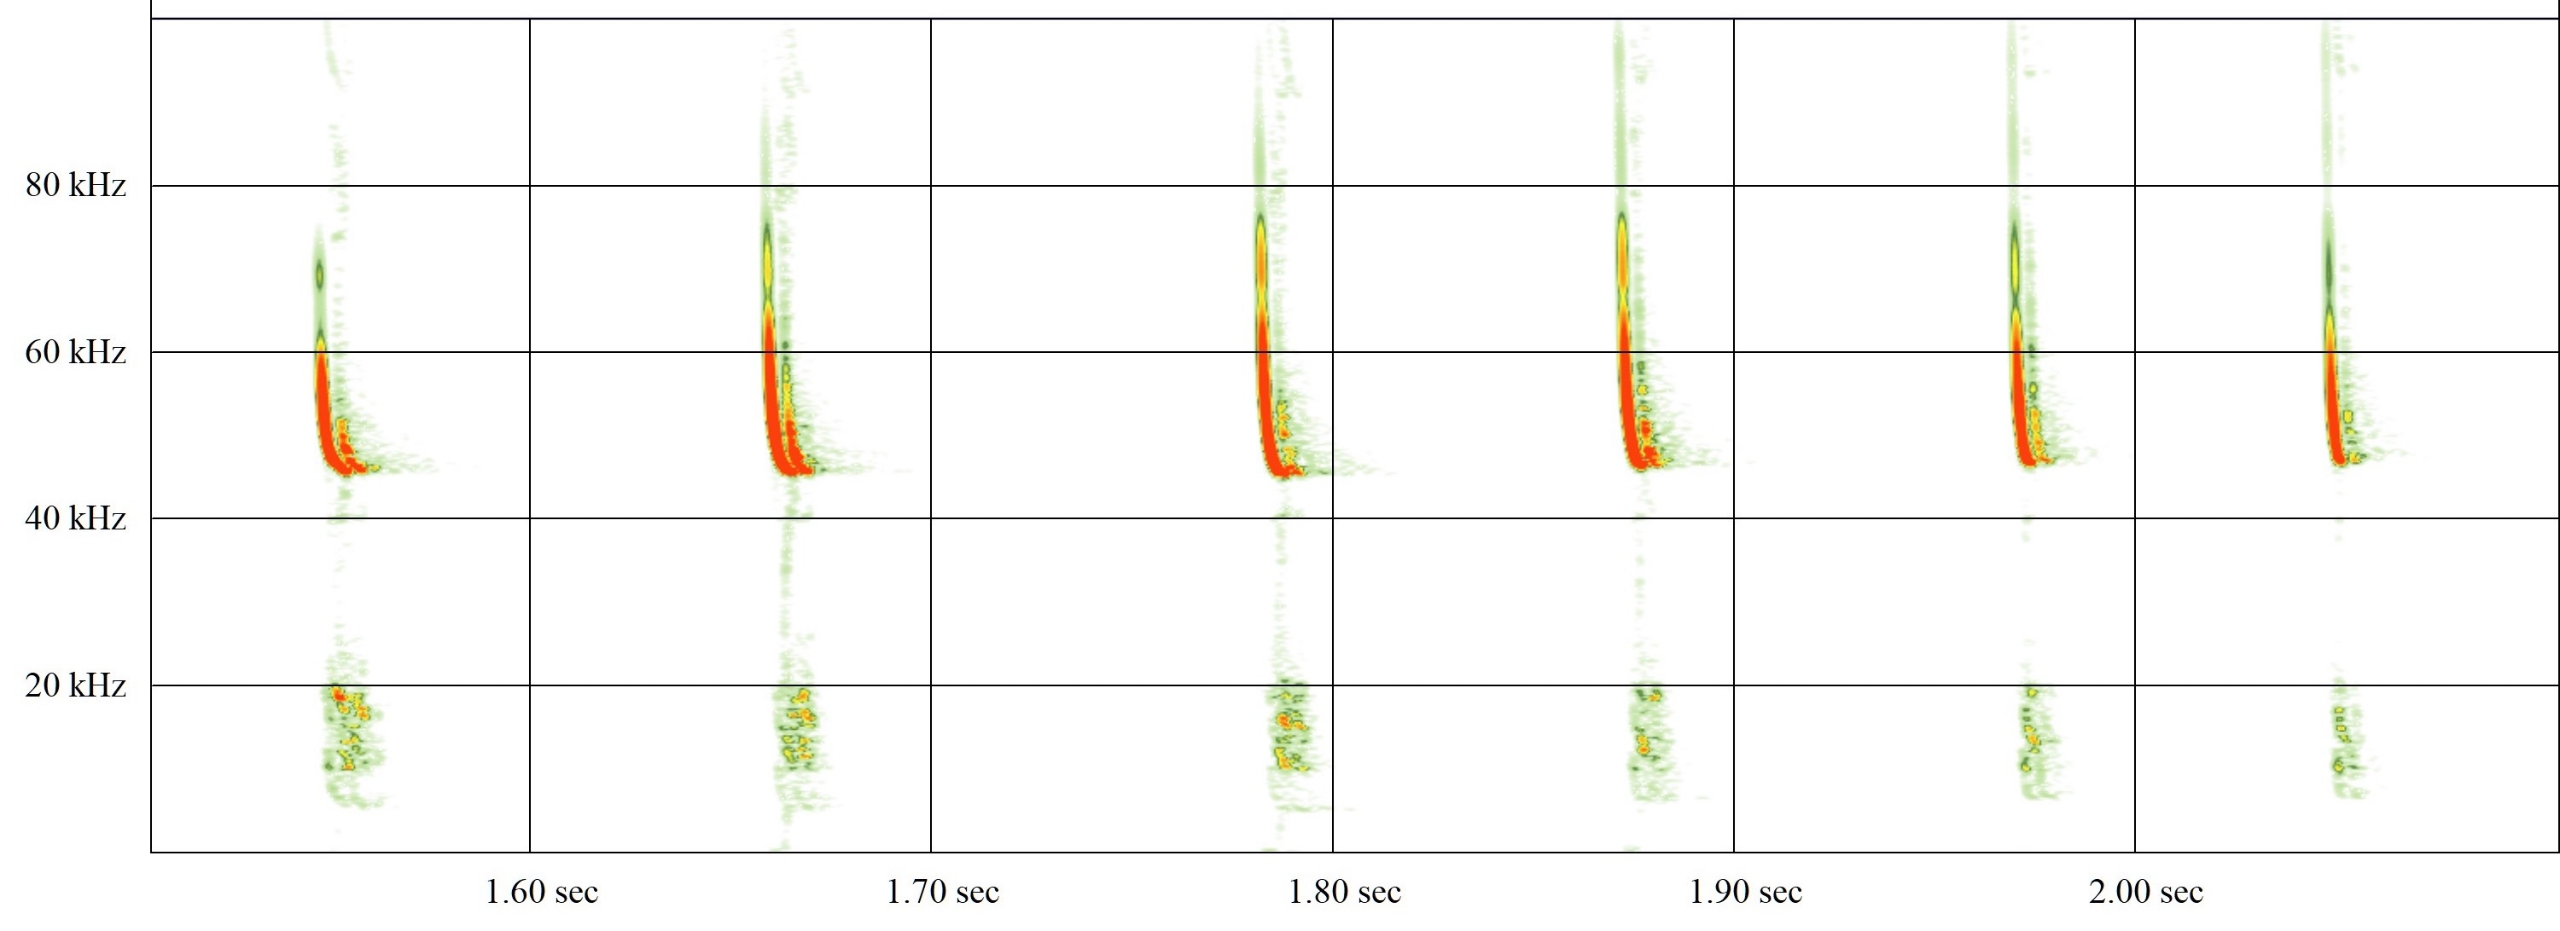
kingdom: Animalia
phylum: Chordata
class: Mammalia
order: Chiroptera
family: Vespertilionidae
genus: Pipistrellus
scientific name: Pipistrellus pipistrellus
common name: Pipistrelflagermus
